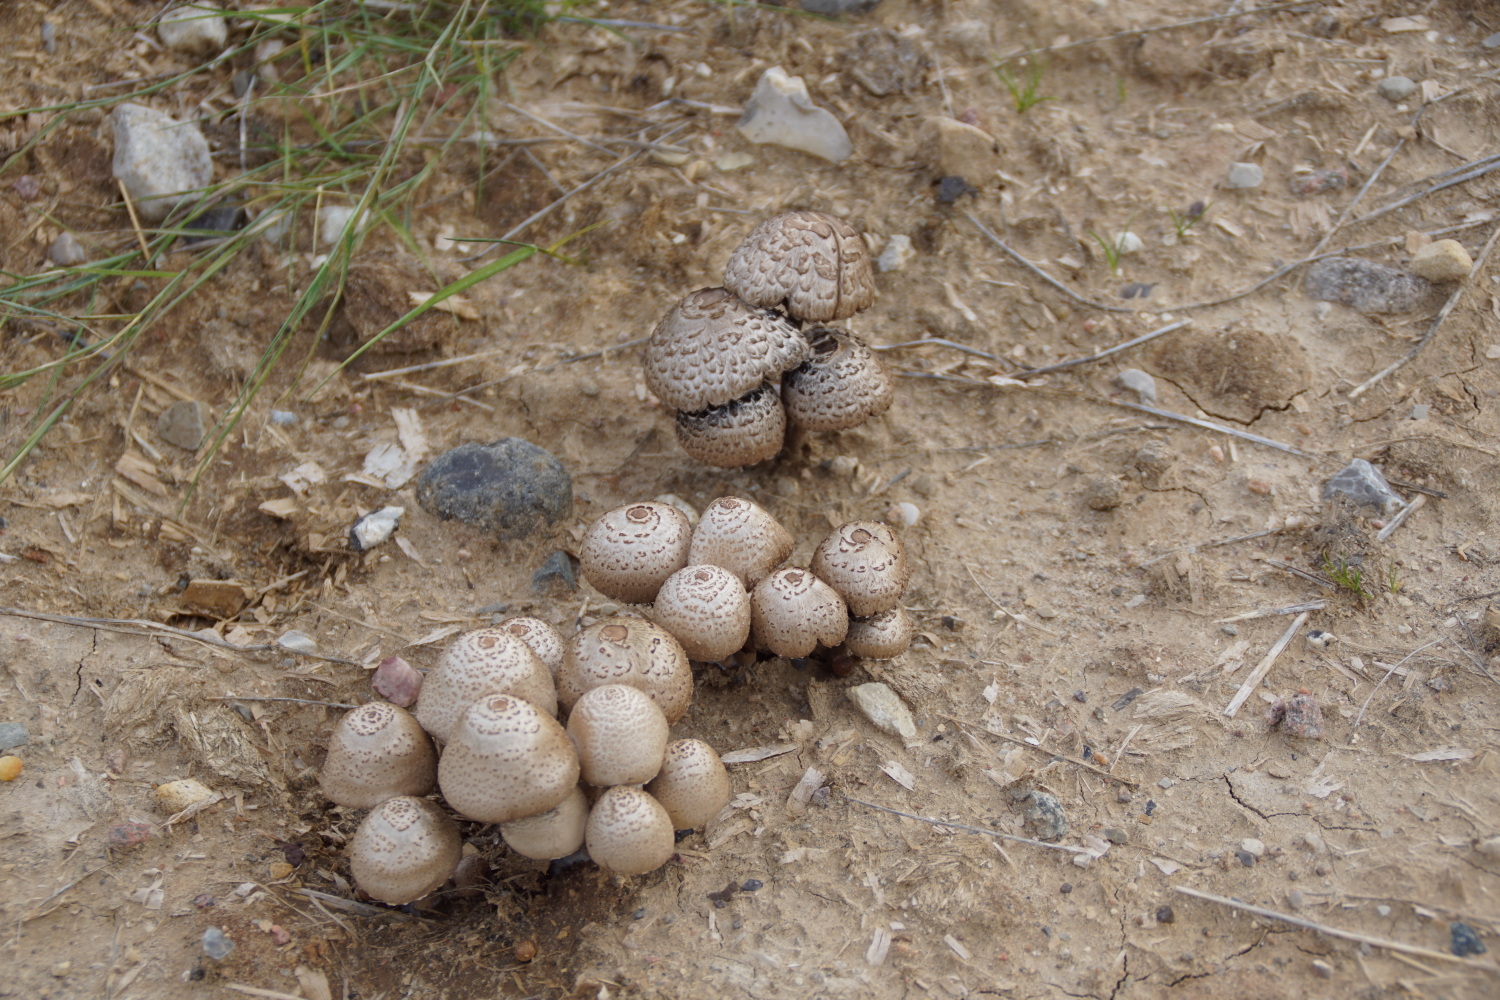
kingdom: Fungi
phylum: Basidiomycota
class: Agaricomycetes
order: Agaricales
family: Bolbitiaceae
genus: Panaeolus
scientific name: Panaeolus papilionaceus
